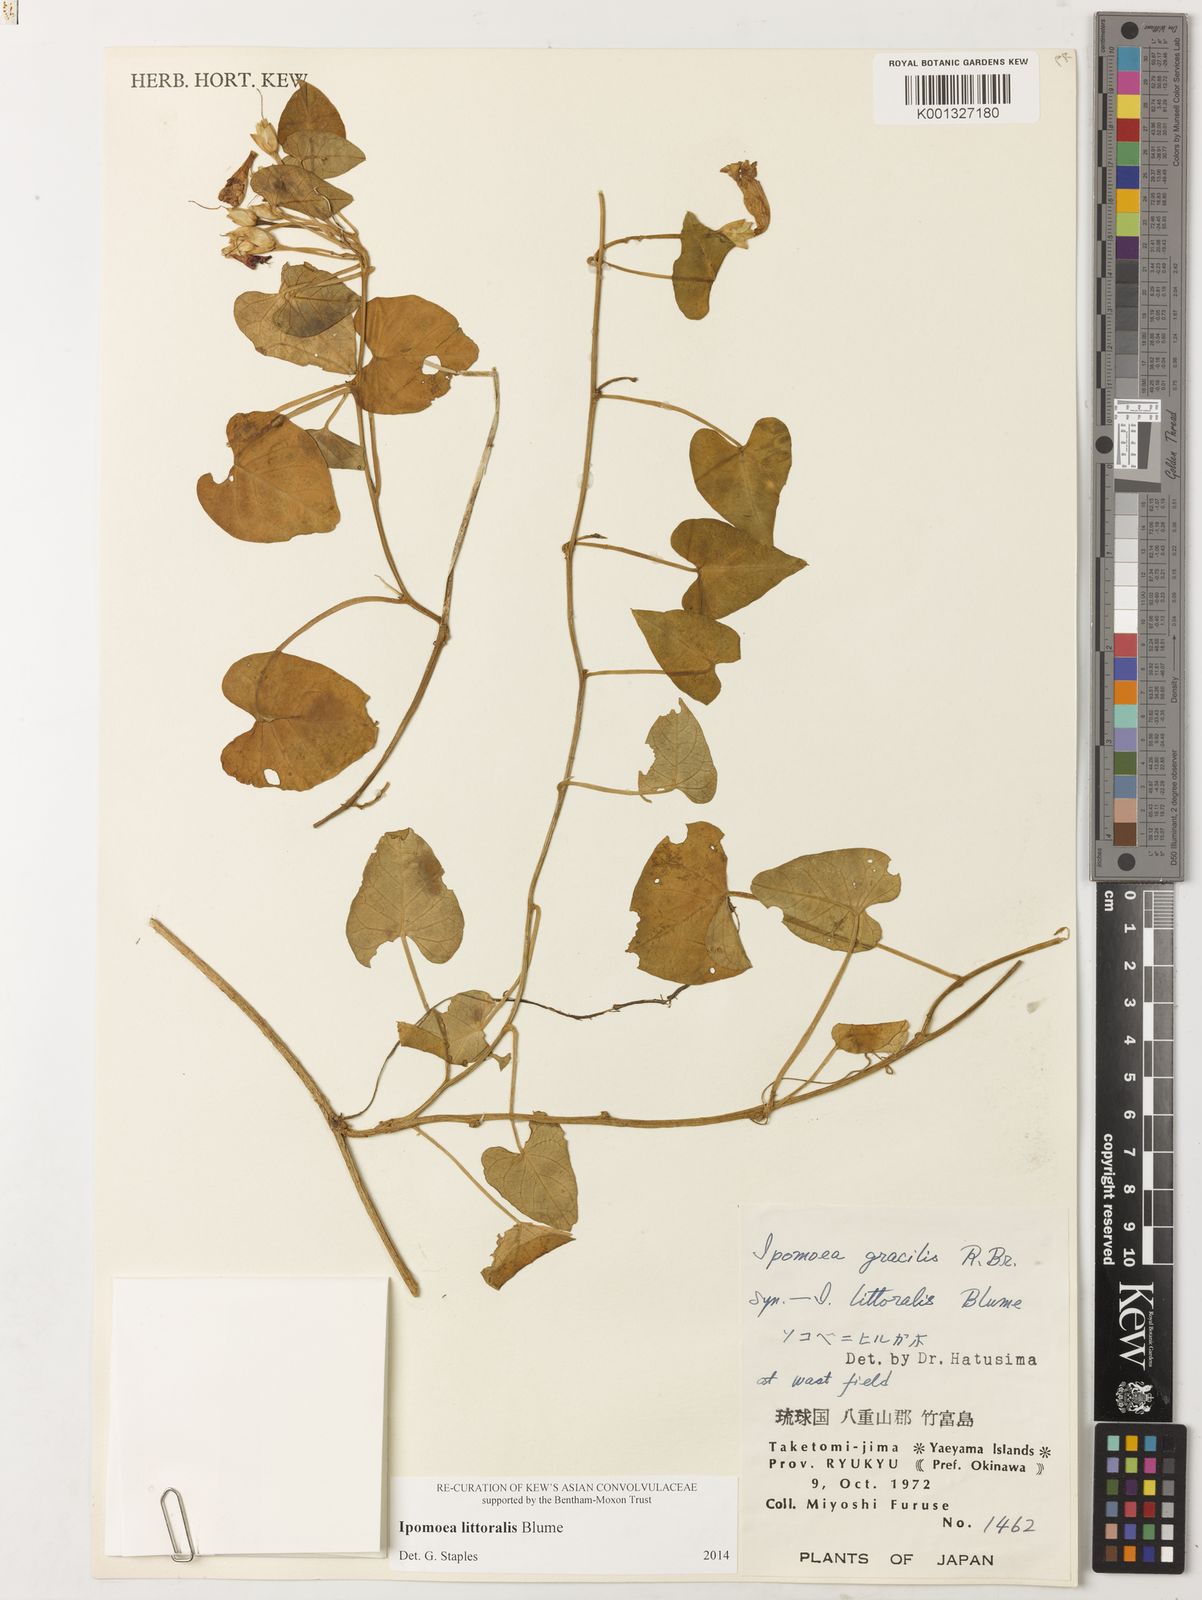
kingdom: Plantae
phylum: Tracheophyta
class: Magnoliopsida
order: Solanales
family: Convolvulaceae
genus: Ipomoea
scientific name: Ipomoea littoralis
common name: Coastal morning glory
